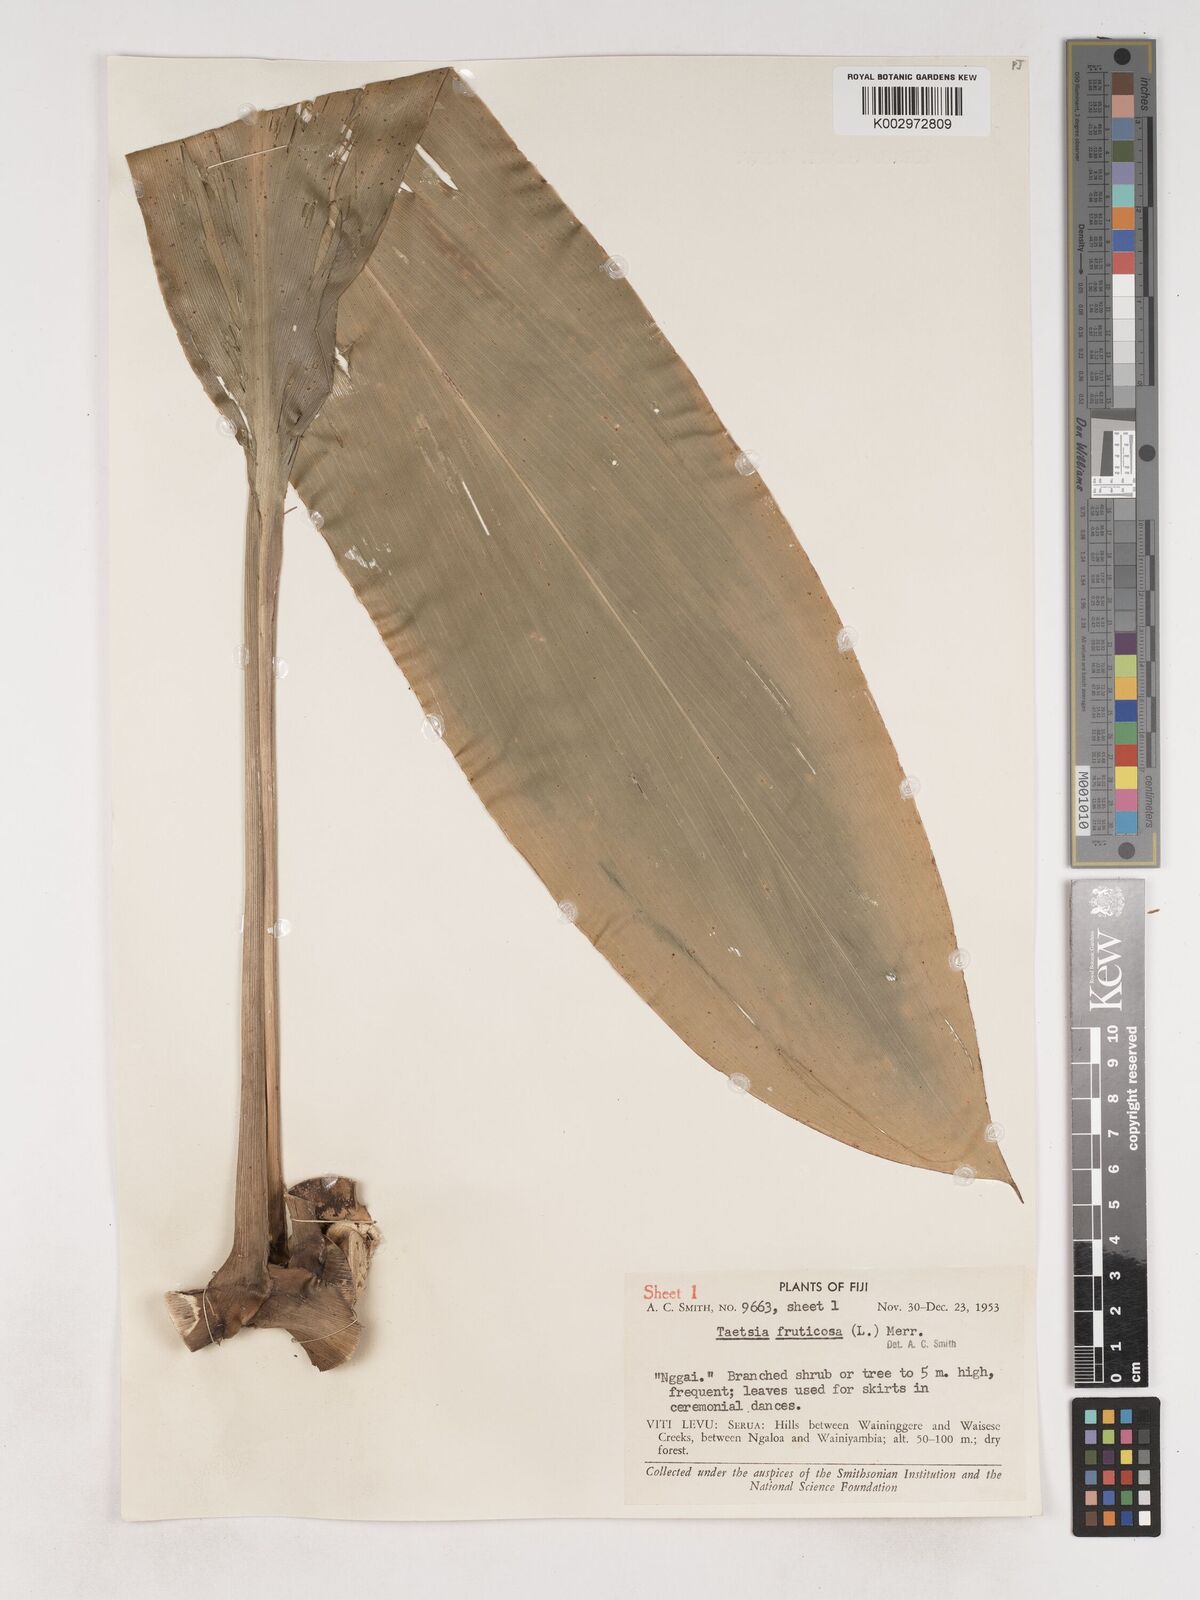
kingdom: Plantae
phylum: Tracheophyta
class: Liliopsida
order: Asparagales
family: Asparagaceae
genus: Cordyline
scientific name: Cordyline fruticosa
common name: Good-luck-plant
